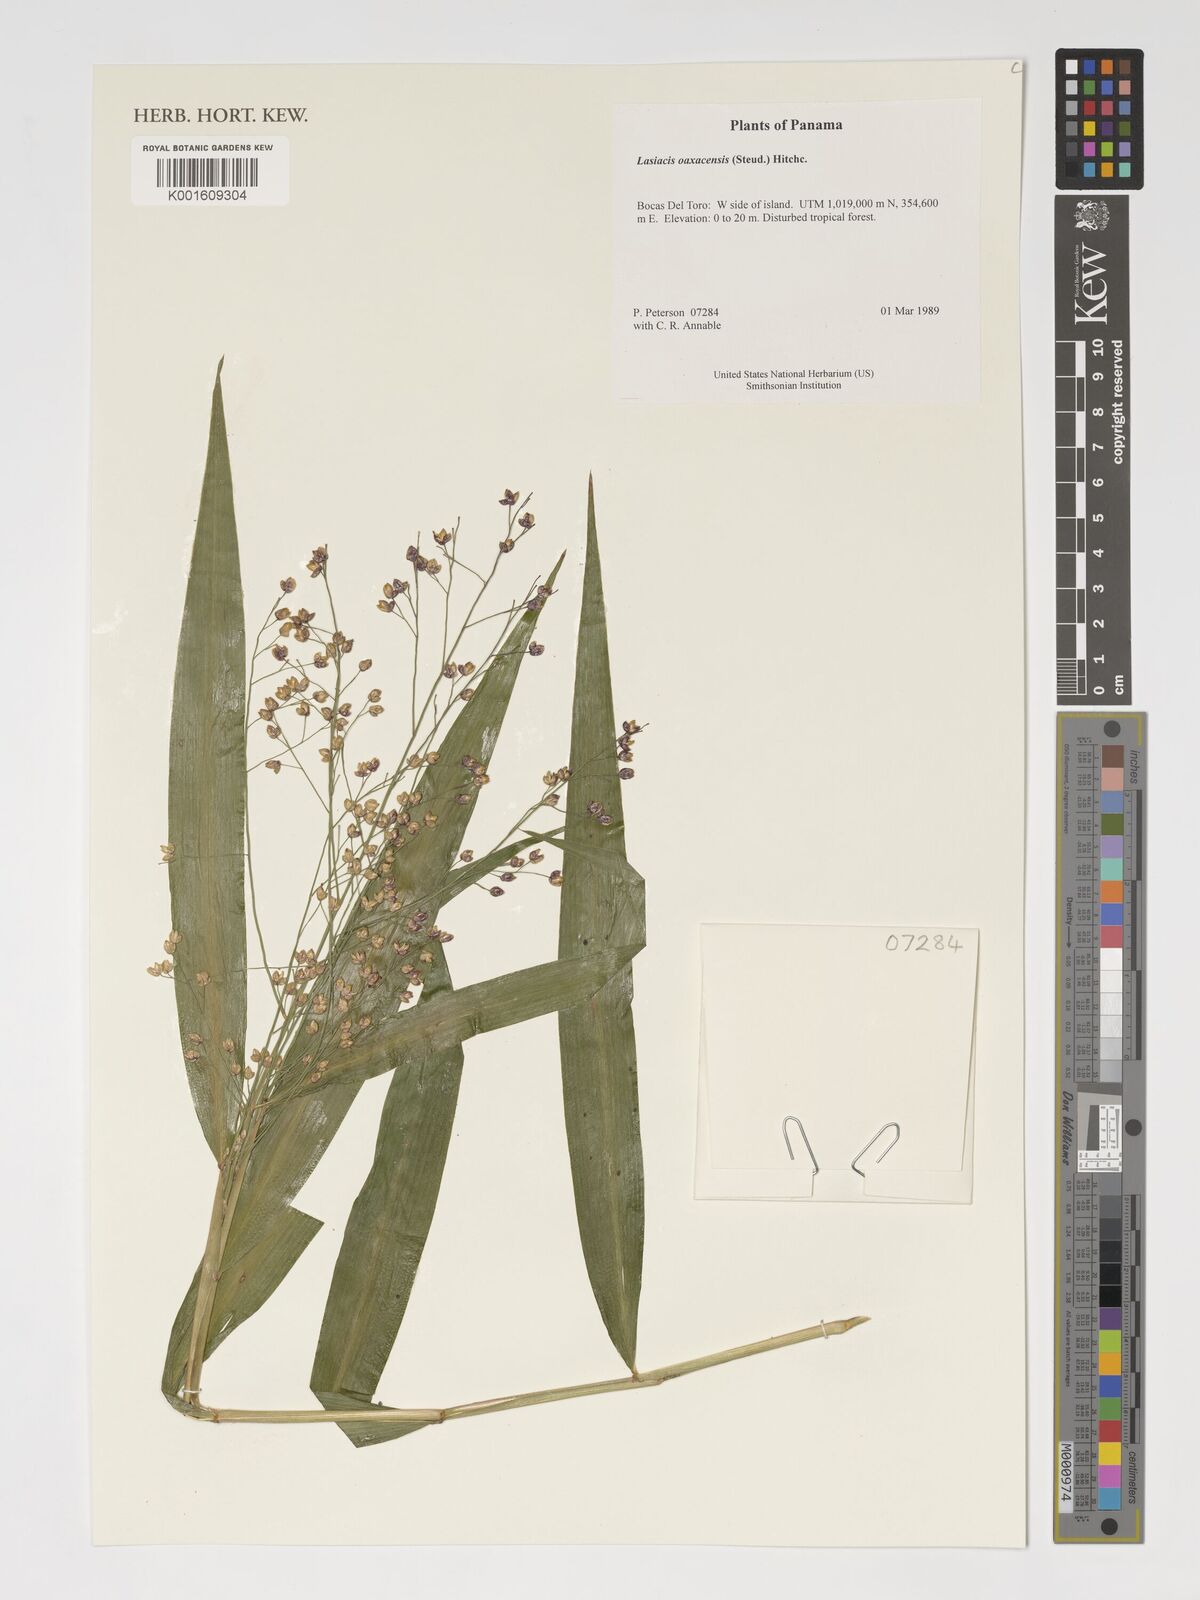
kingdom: Plantae
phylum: Tracheophyta
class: Liliopsida
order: Poales
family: Poaceae
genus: Lasiacis
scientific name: Lasiacis oaxacensis
